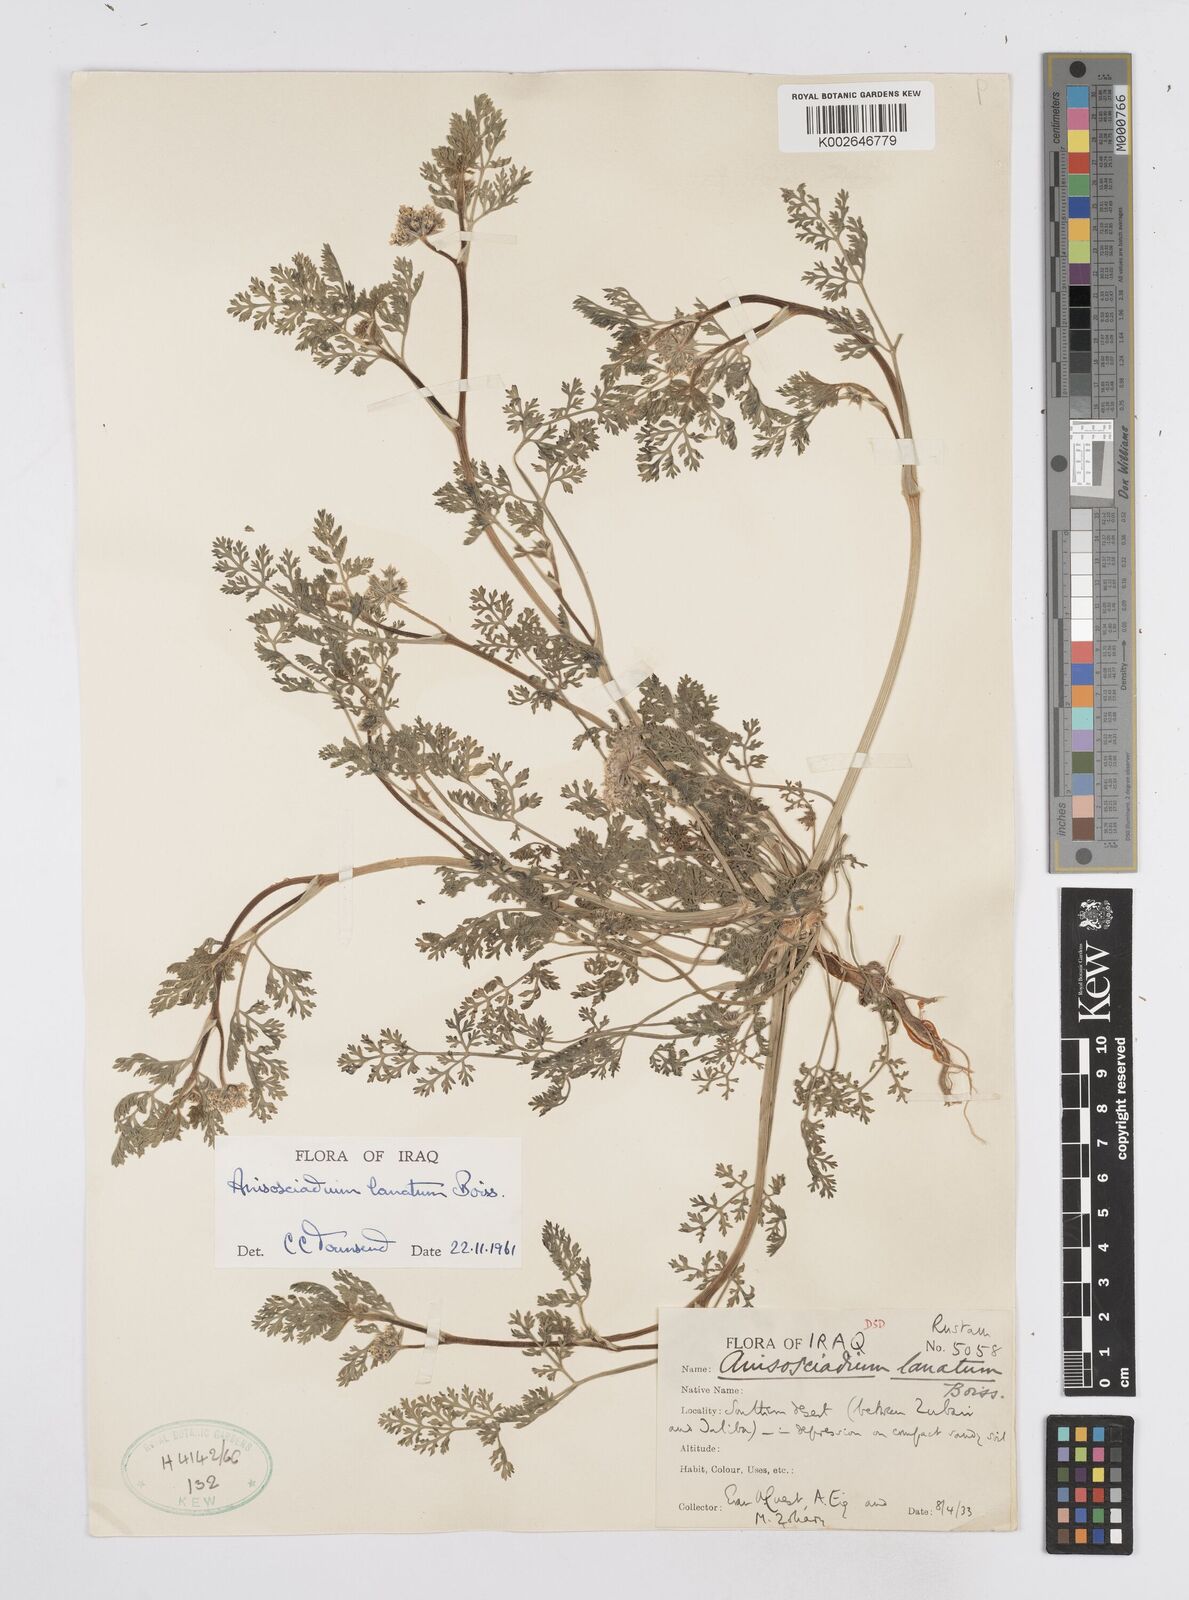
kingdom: Plantae
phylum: Tracheophyta
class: Magnoliopsida
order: Apiales
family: Apiaceae
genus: Anisosciadium
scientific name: Anisosciadium lanatum
